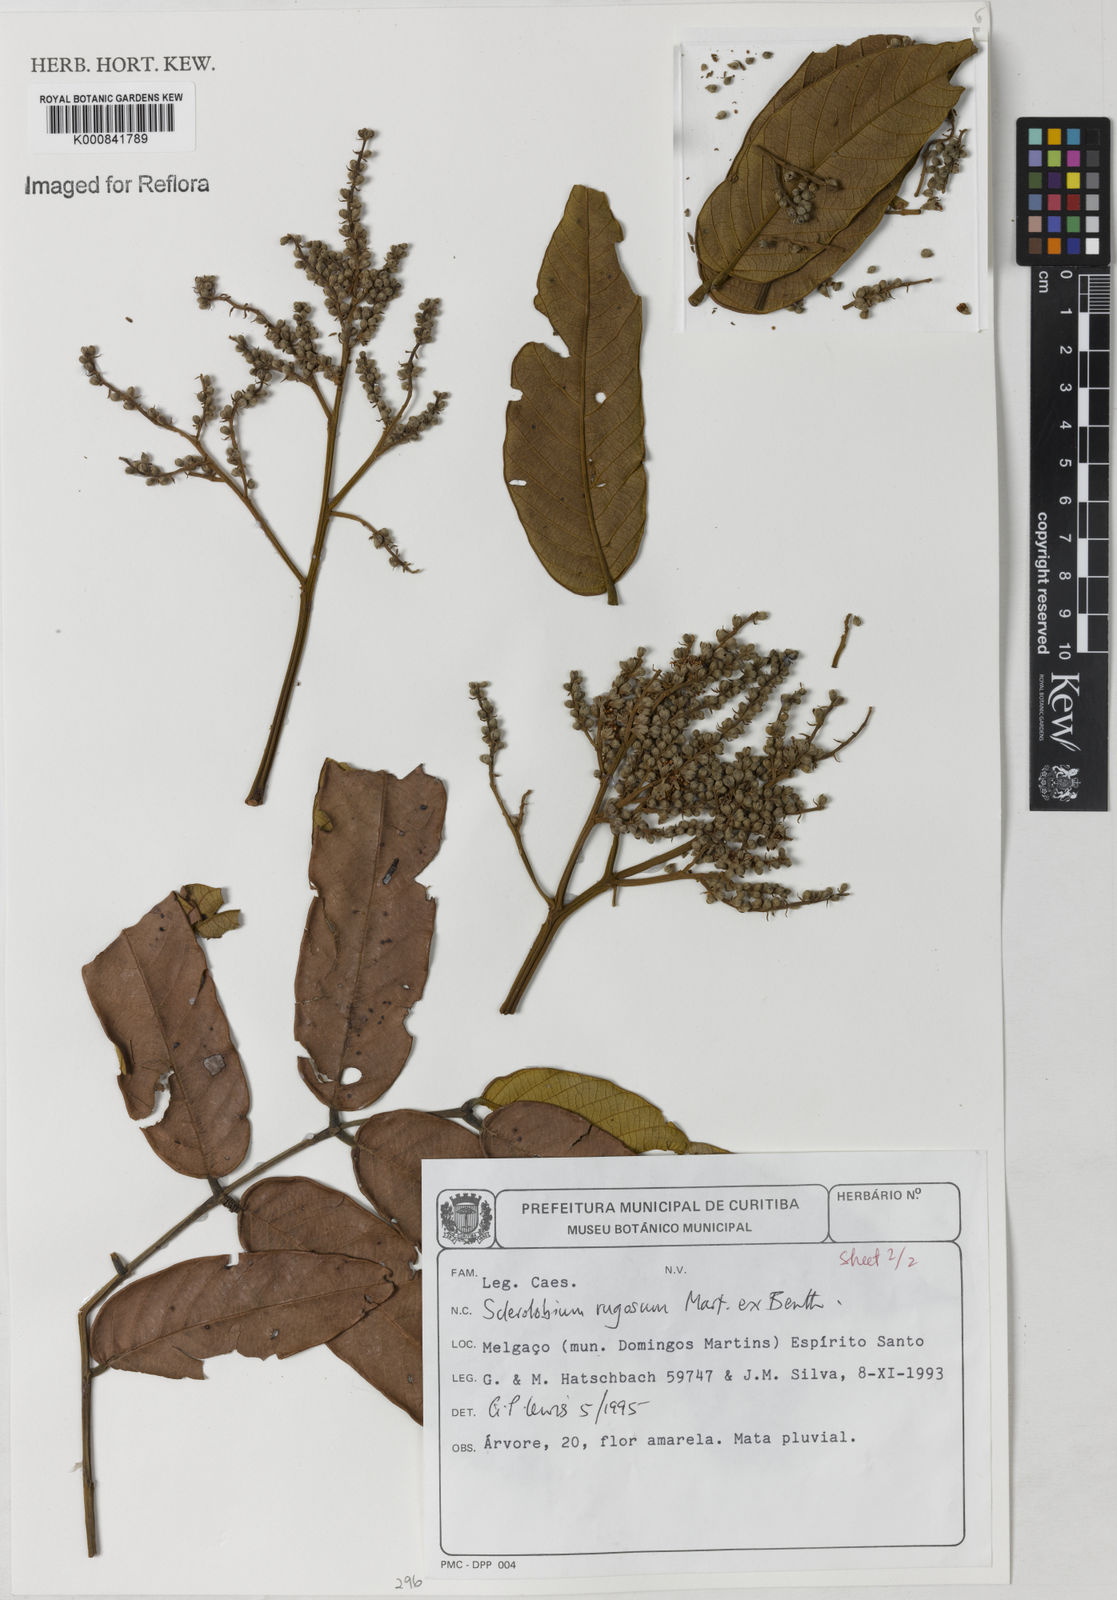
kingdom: Plantae
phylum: Tracheophyta
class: Magnoliopsida
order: Fabales
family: Fabaceae
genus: Tachigali
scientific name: Tachigali rugosa
